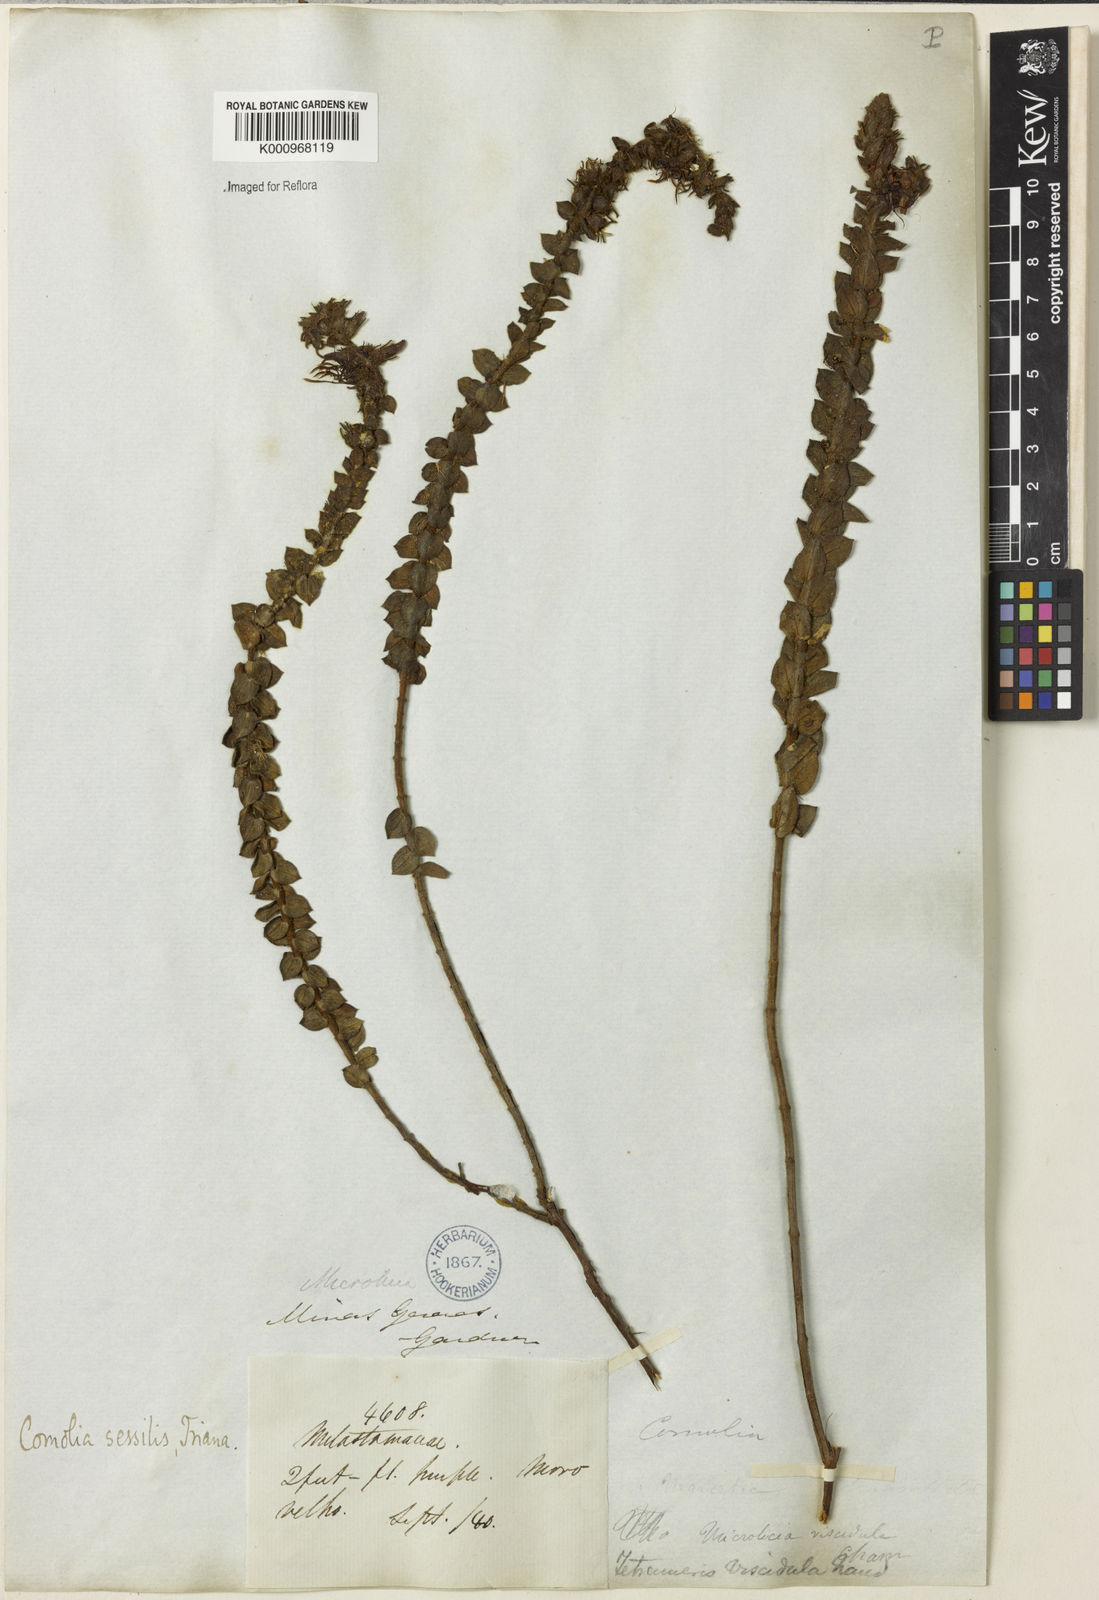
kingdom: Plantae
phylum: Tracheophyta
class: Magnoliopsida
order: Myrtales
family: Melastomataceae
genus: Fritzschia
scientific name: Fritzschia sessilis
